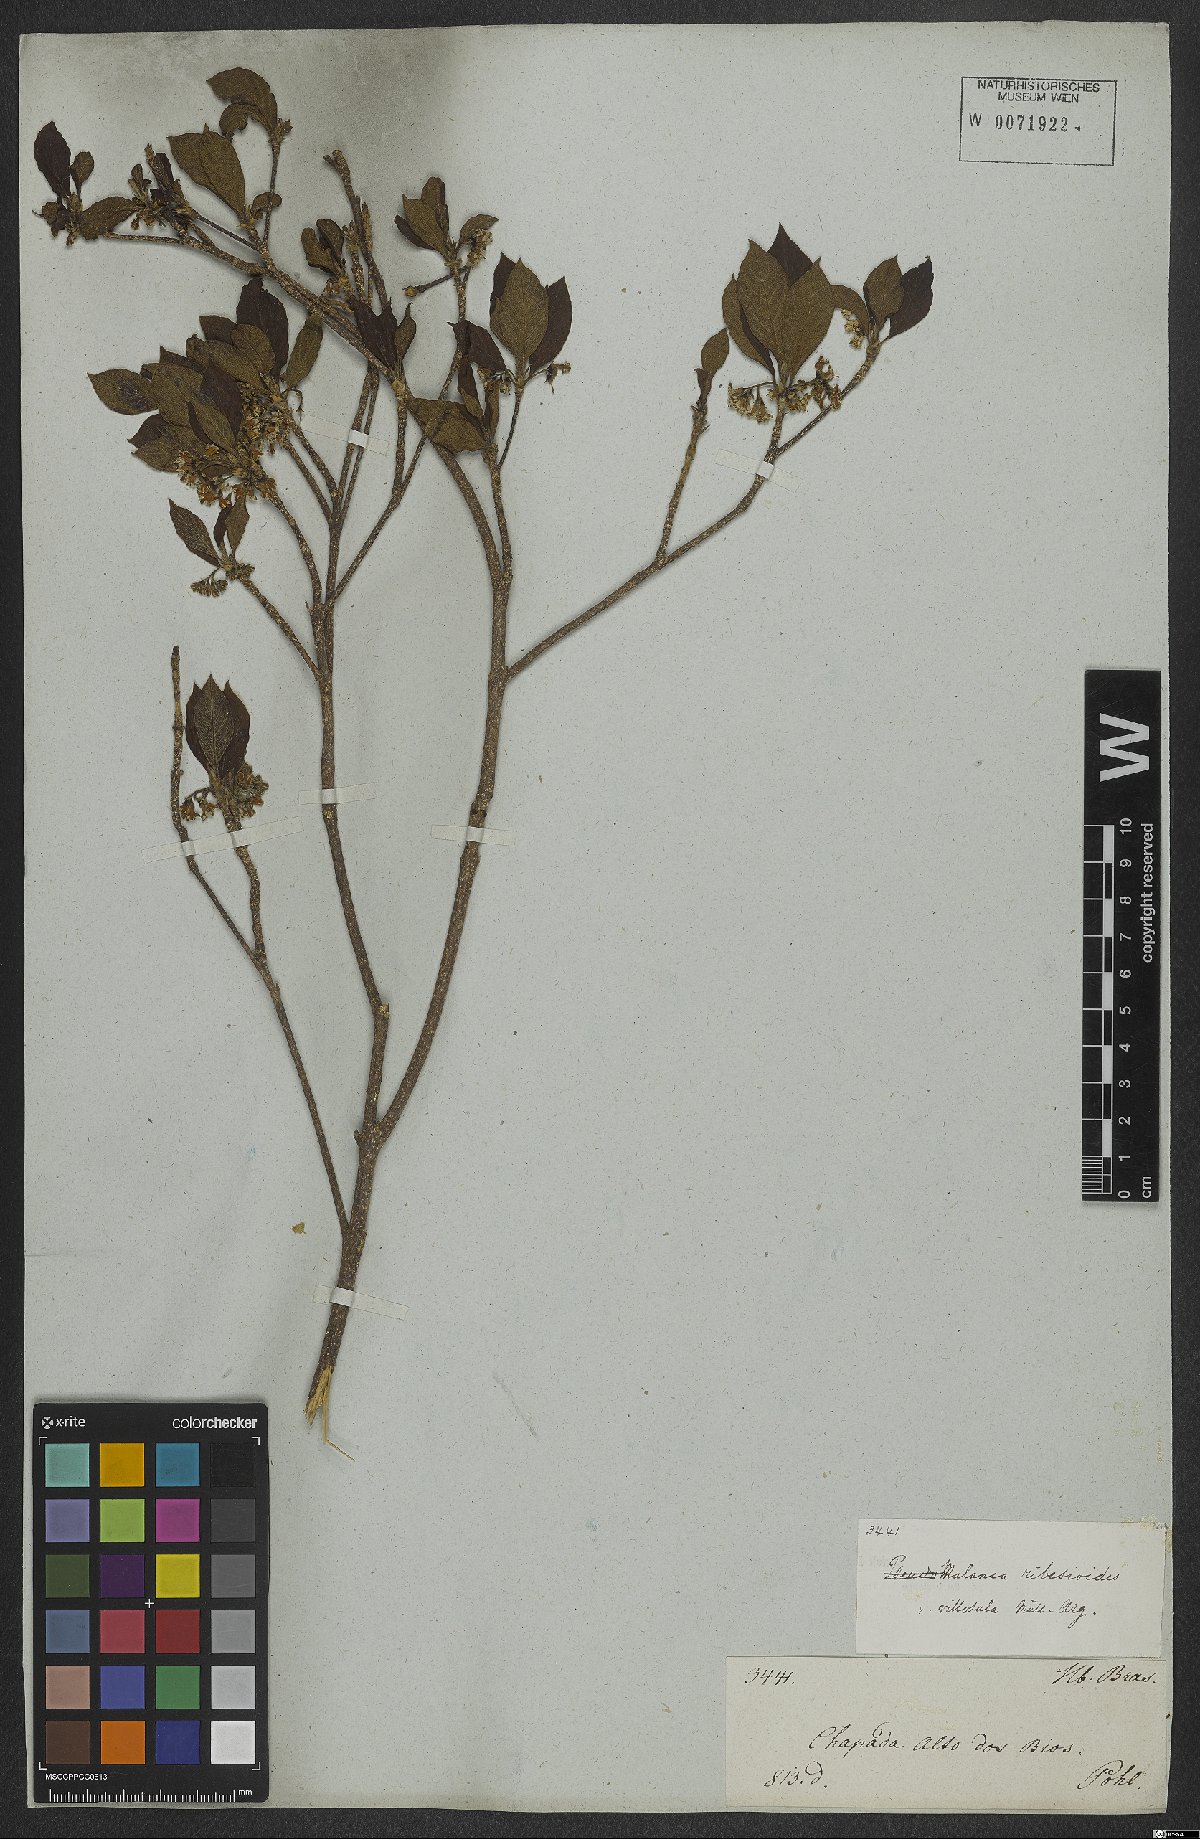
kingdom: Plantae
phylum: Tracheophyta
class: Magnoliopsida
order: Gentianales
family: Rubiaceae
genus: Chomelia
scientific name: Chomelia ribesioides
